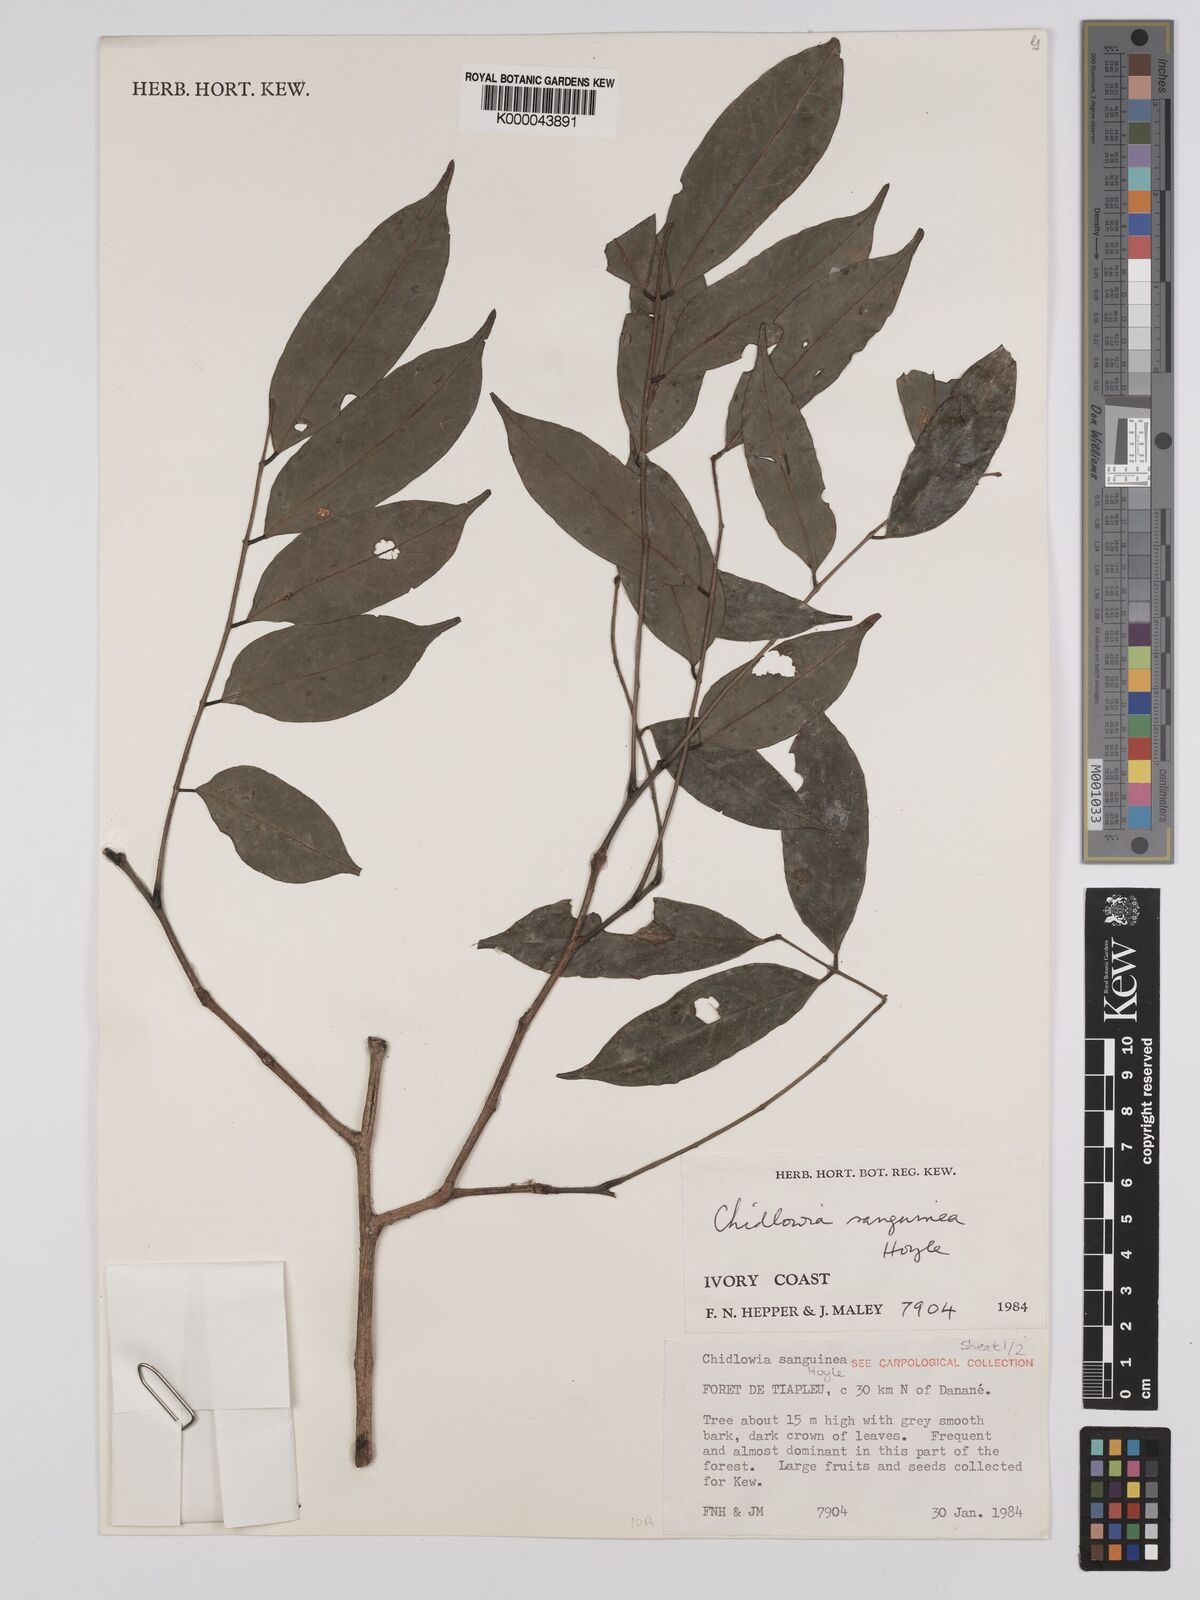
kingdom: Plantae
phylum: Tracheophyta
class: Magnoliopsida
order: Fabales
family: Fabaceae
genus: Chidlowia
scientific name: Chidlowia sanguinea
